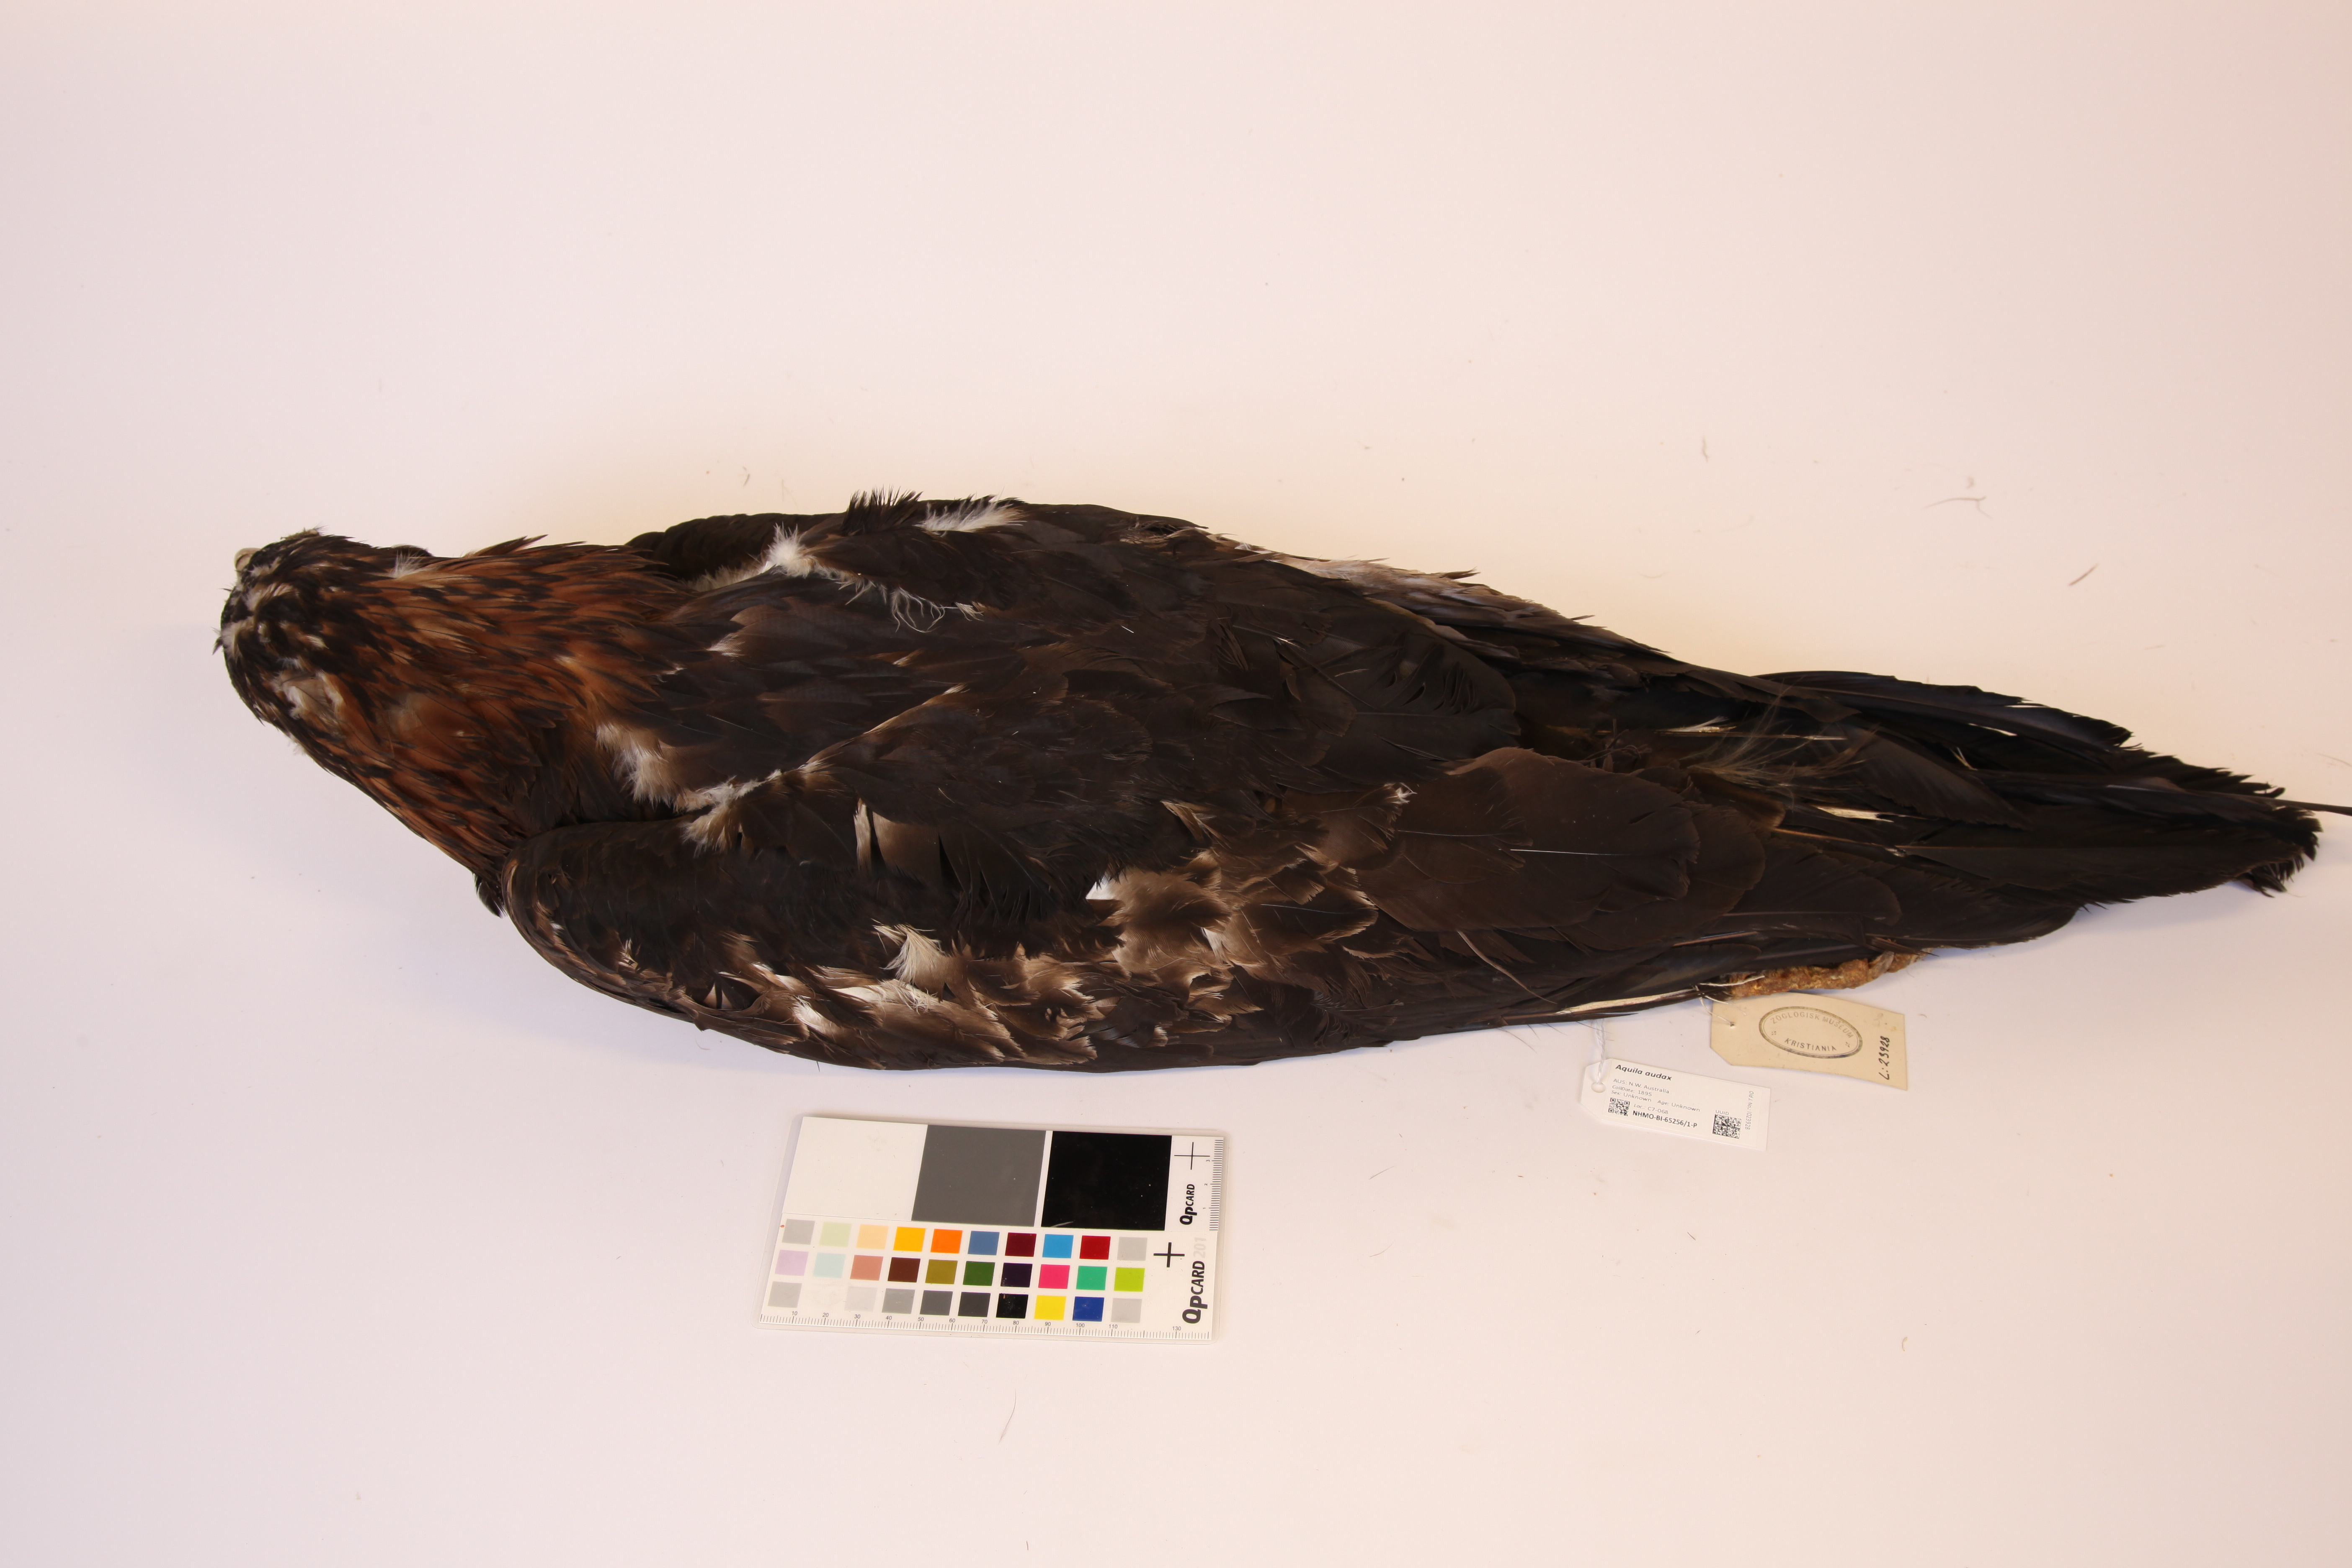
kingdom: Animalia
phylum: Chordata
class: Aves
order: Accipitriformes
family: Accipitridae
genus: Aquila
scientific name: Aquila audax
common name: Wedge-tailed eagle
